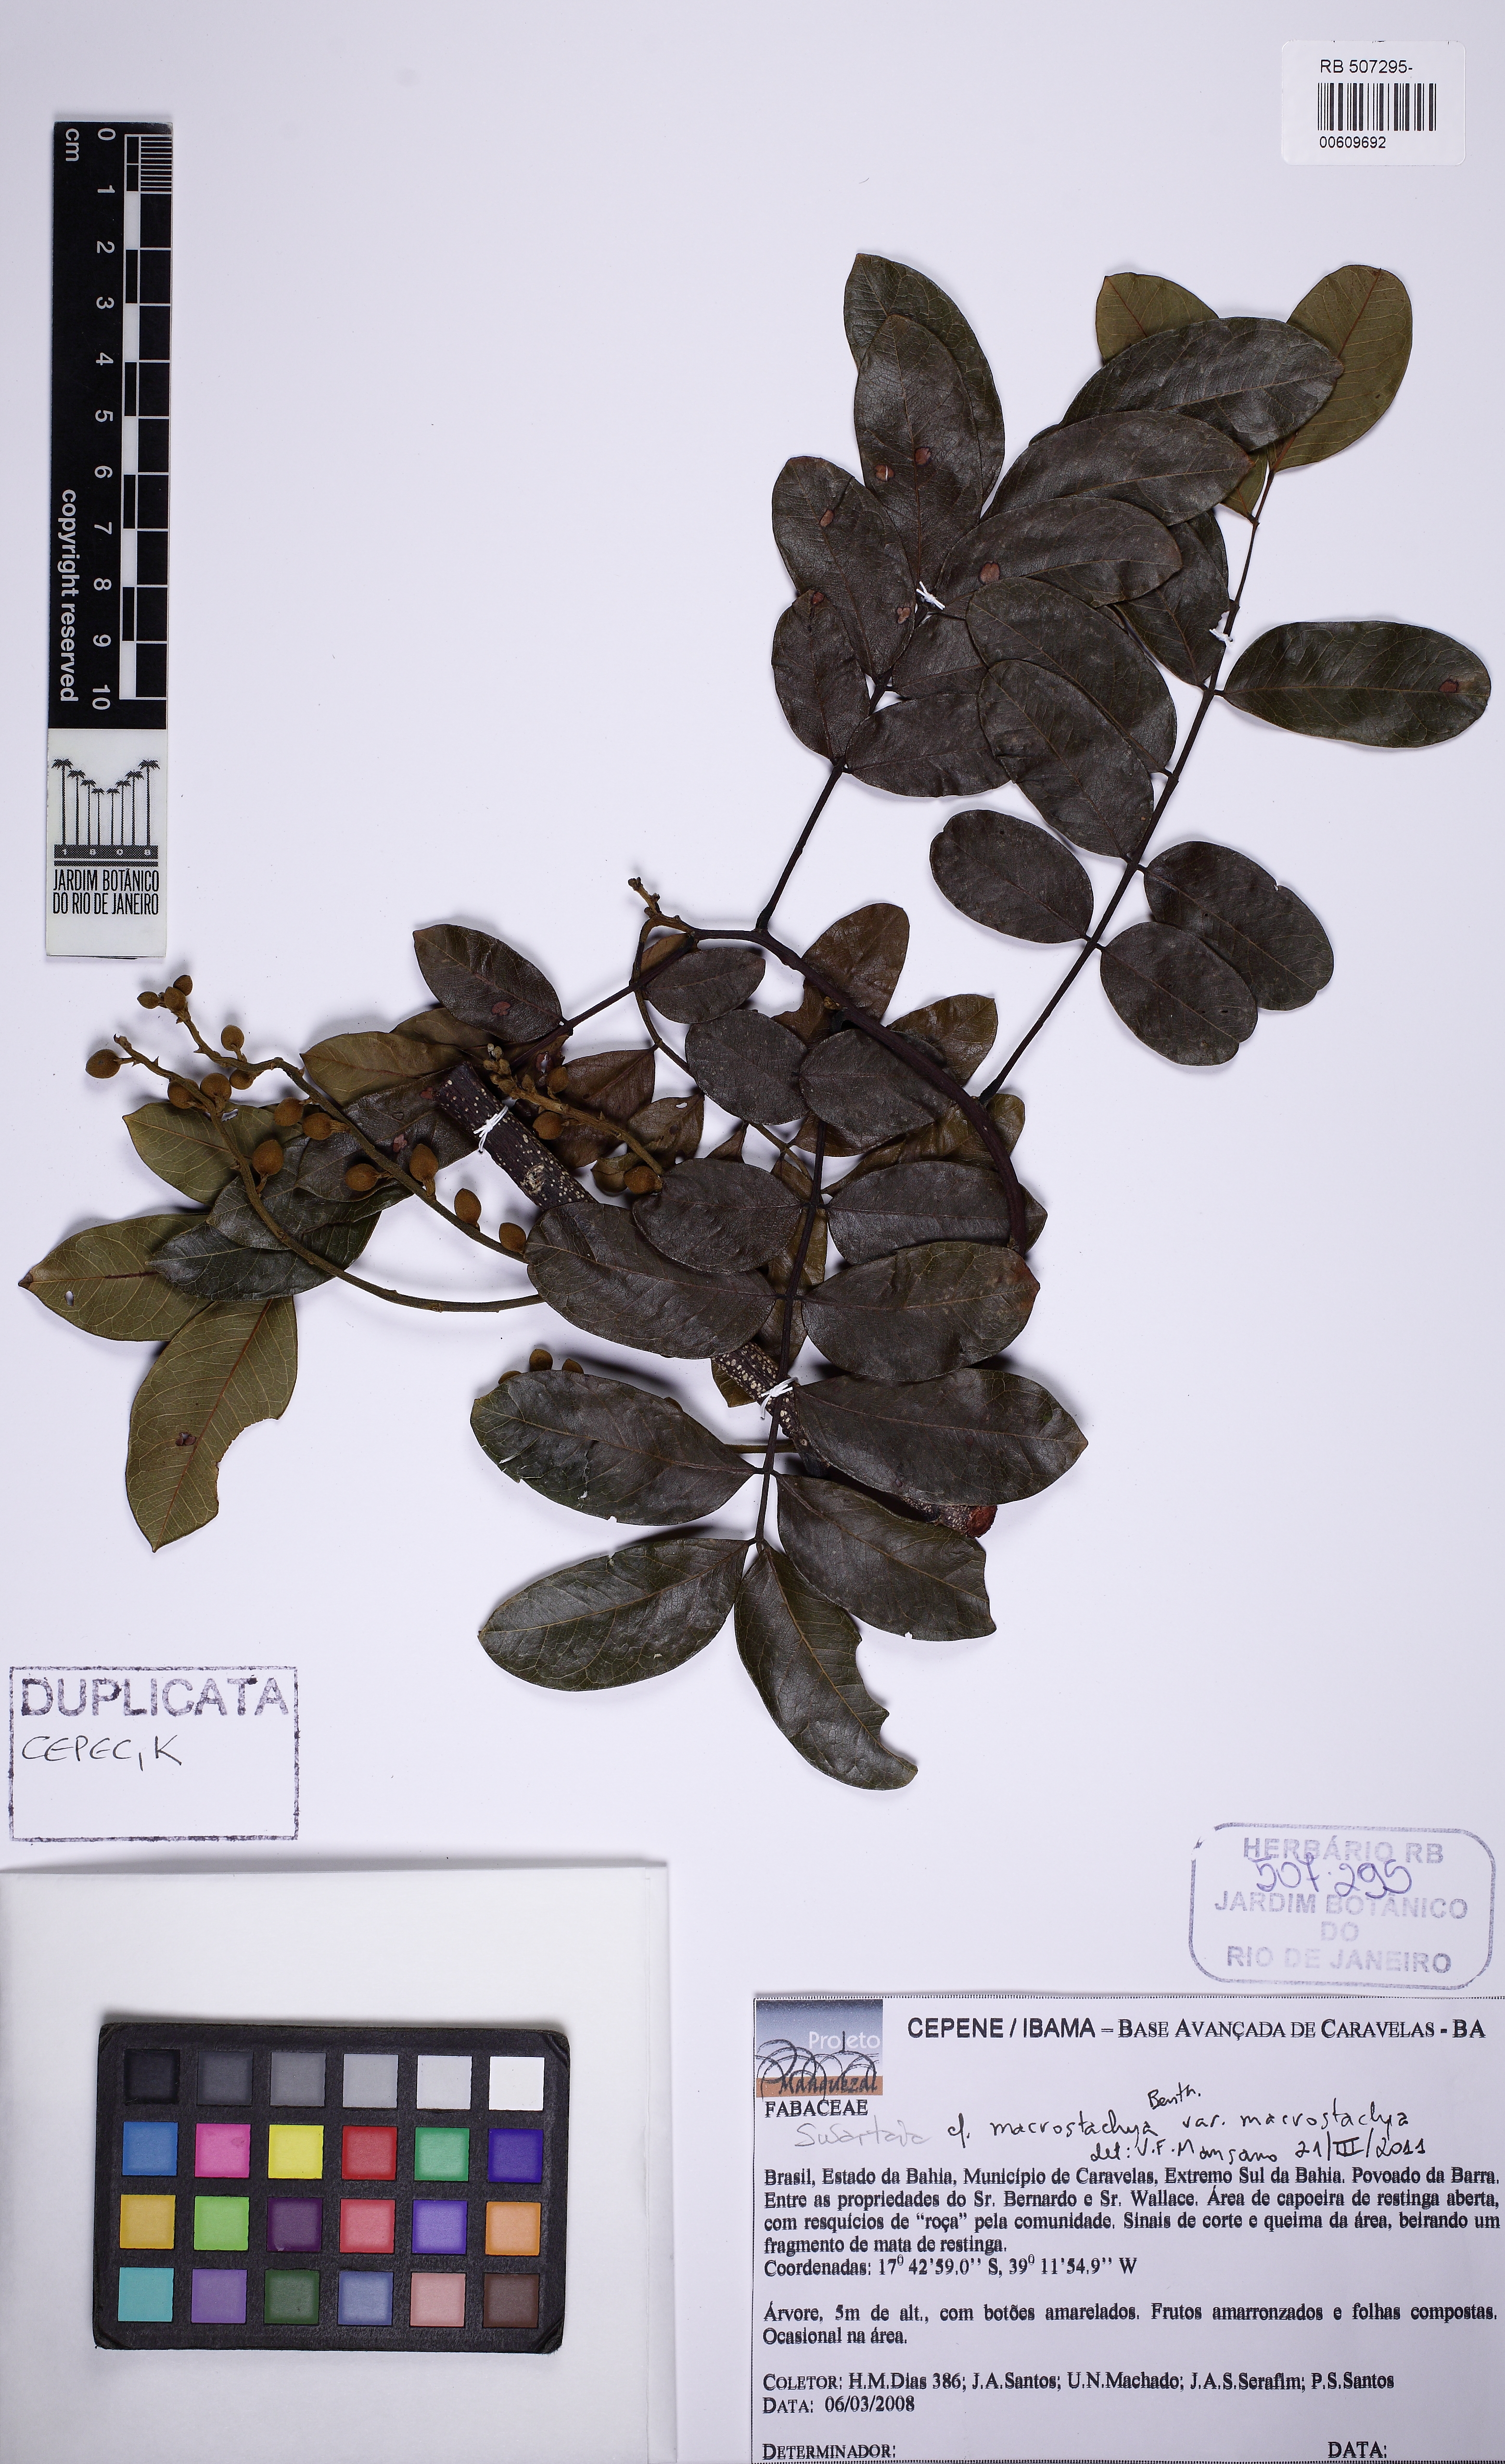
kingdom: Plantae
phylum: Tracheophyta
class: Magnoliopsida
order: Fabales
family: Fabaceae
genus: Swartzia
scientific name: Swartzia macrostachya
